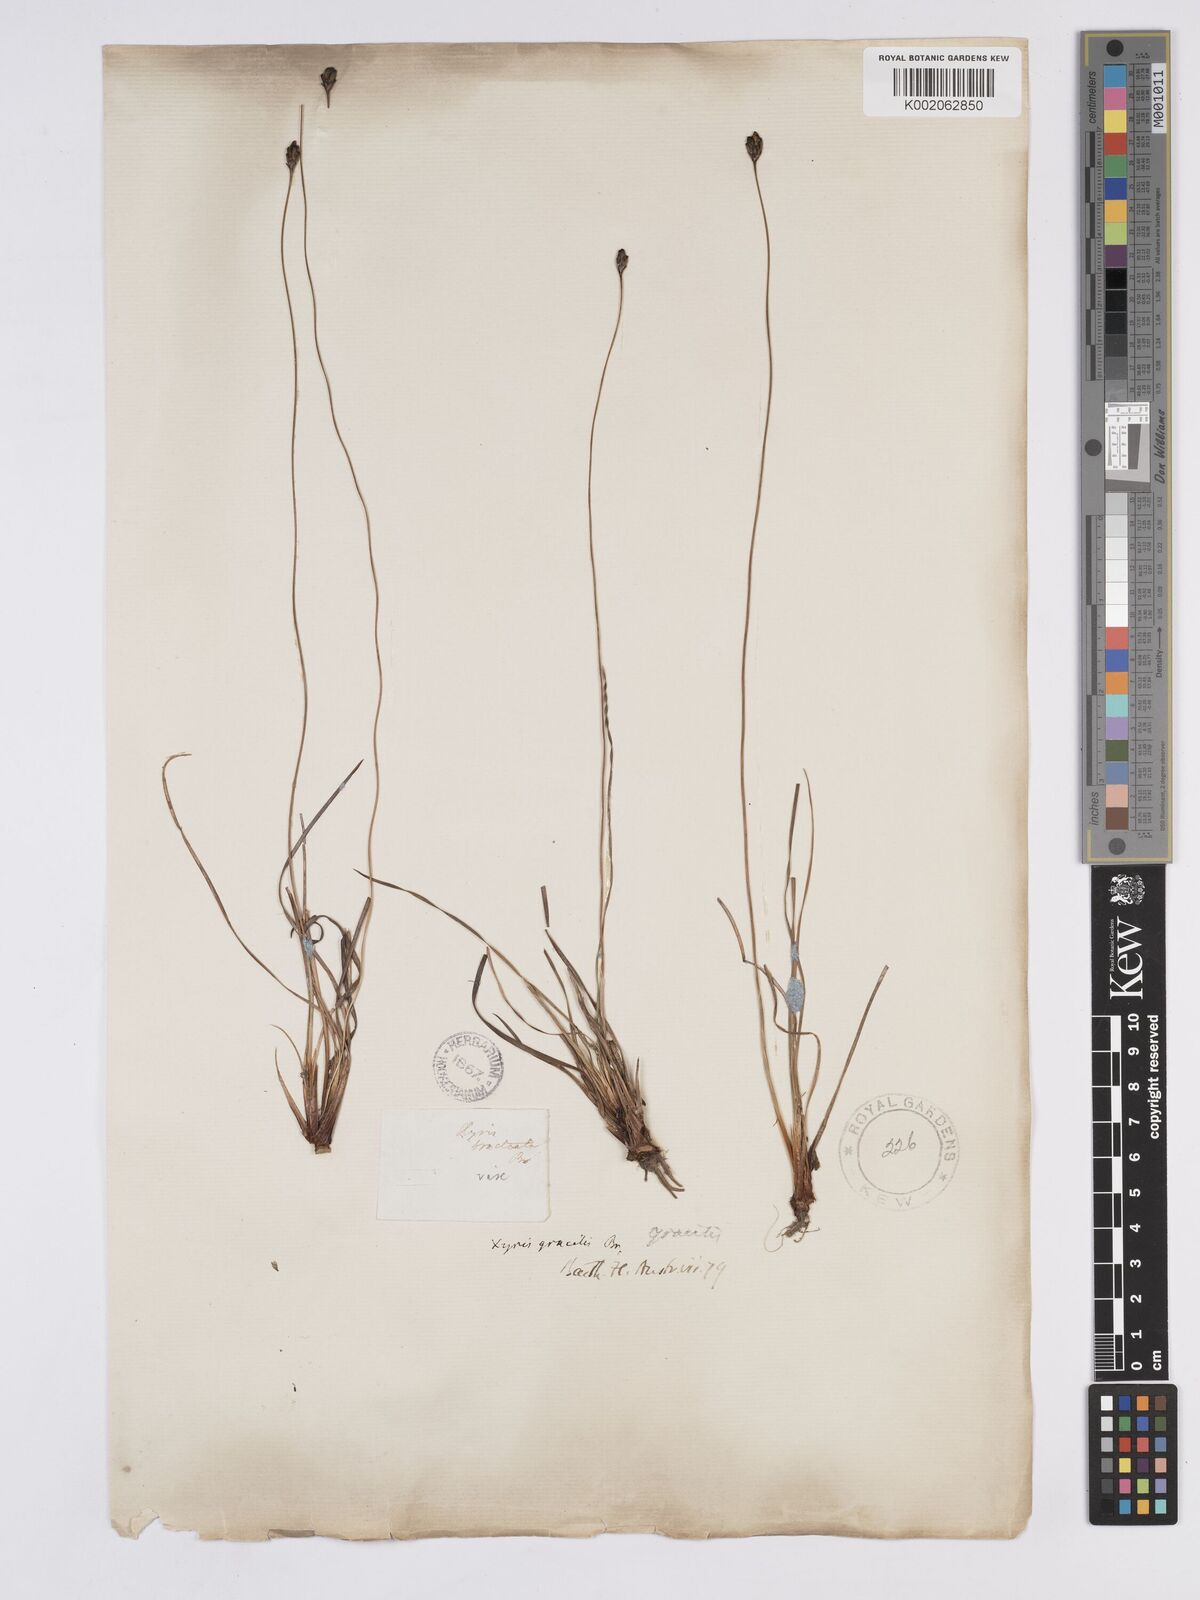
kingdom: Plantae
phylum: Tracheophyta
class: Liliopsida
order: Poales
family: Xyridaceae
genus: Xyris
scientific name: Xyris gracilis
